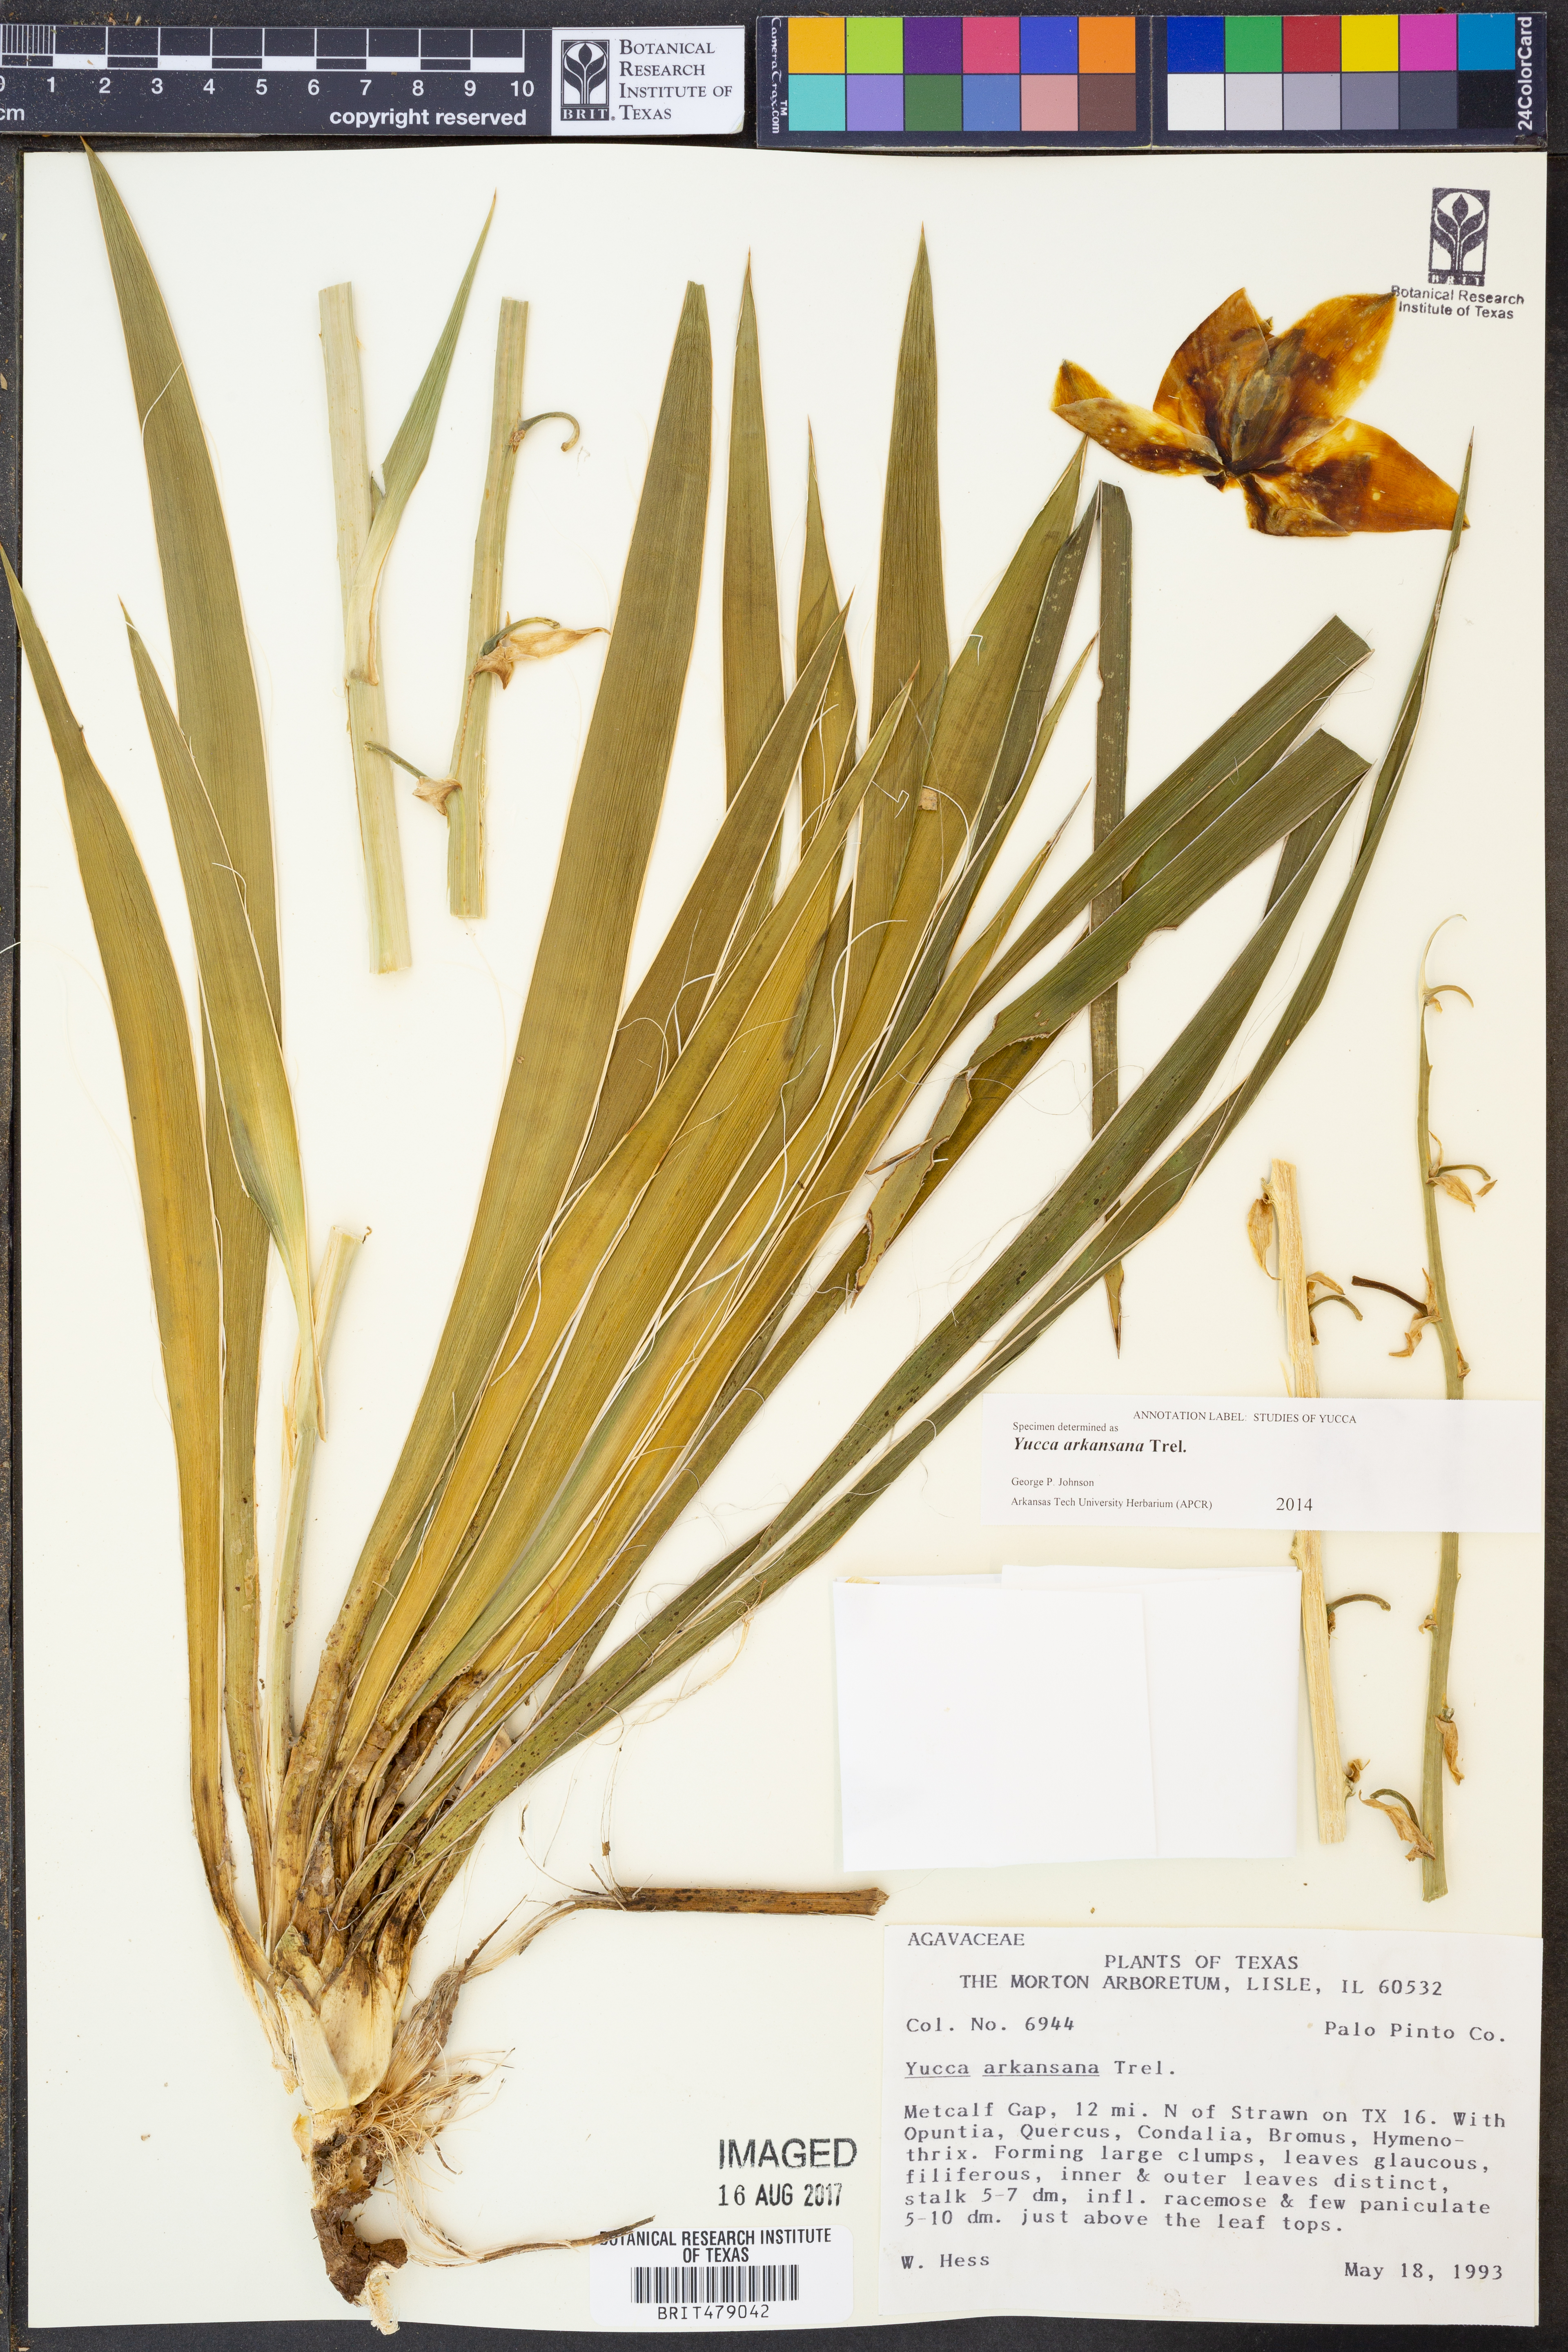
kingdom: Plantae
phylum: Tracheophyta
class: Liliopsida
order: Asparagales
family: Asparagaceae
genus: Yucca
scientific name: Yucca arkansana
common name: Arkansas yucca
